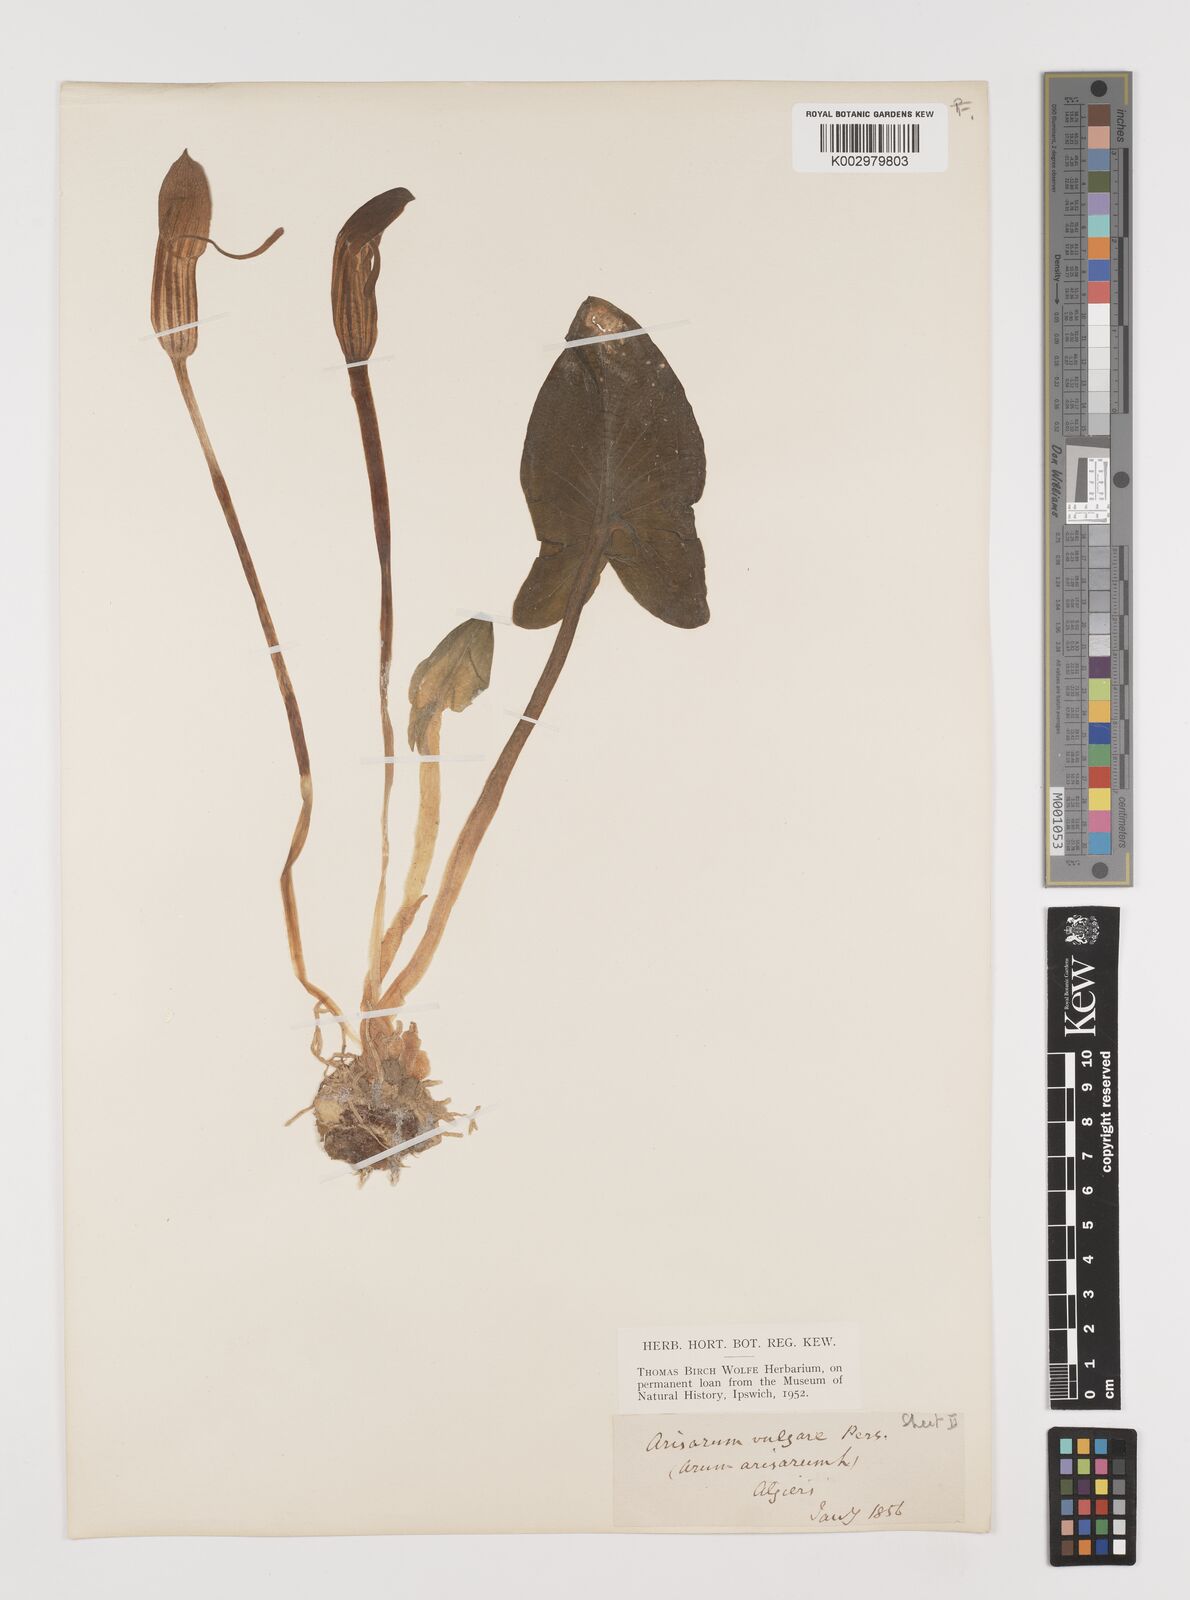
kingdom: Plantae
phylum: Tracheophyta
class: Liliopsida
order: Alismatales
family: Araceae
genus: Arisarum
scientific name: Arisarum vulgare
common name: Common arisarum
